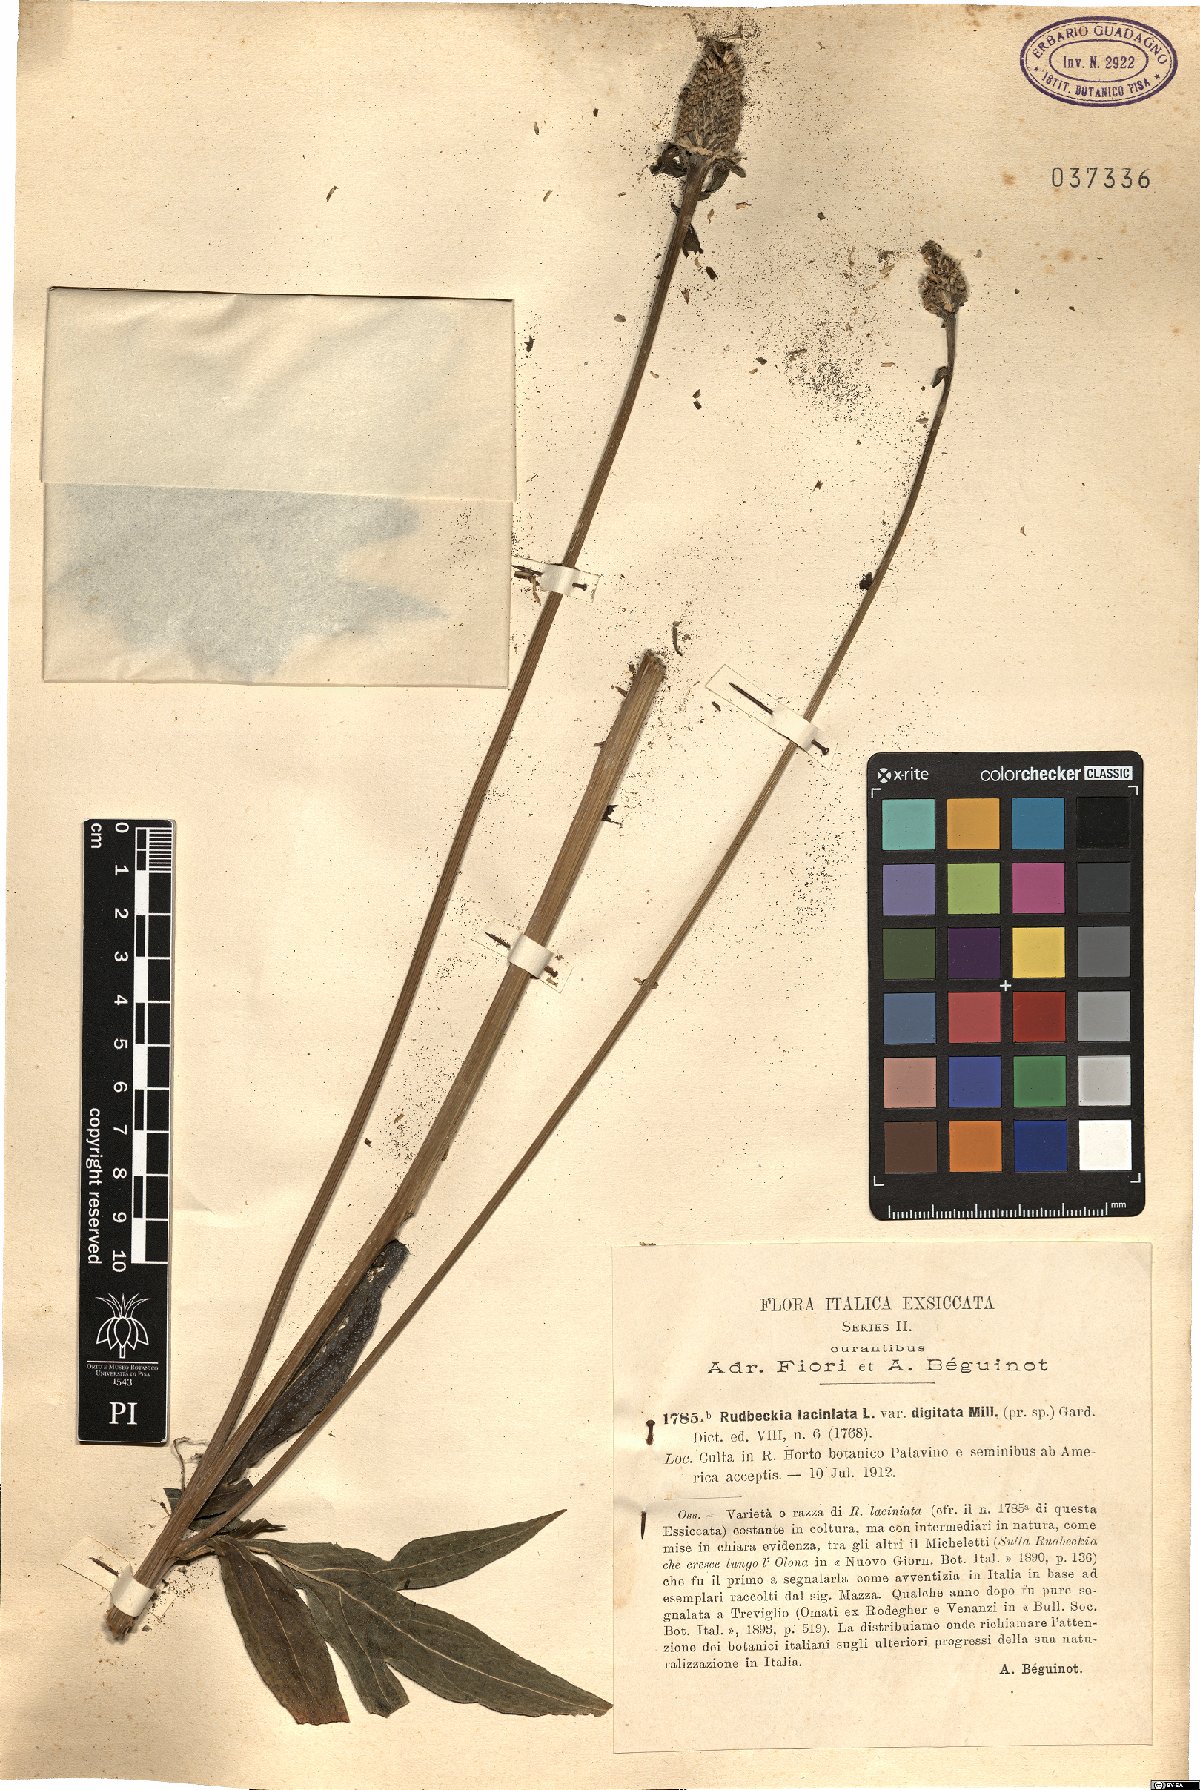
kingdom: Plantae
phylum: Tracheophyta
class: Magnoliopsida
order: Asterales
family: Asteraceae
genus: Rudbeckia
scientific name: Rudbeckia laciniata
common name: Coneflower
